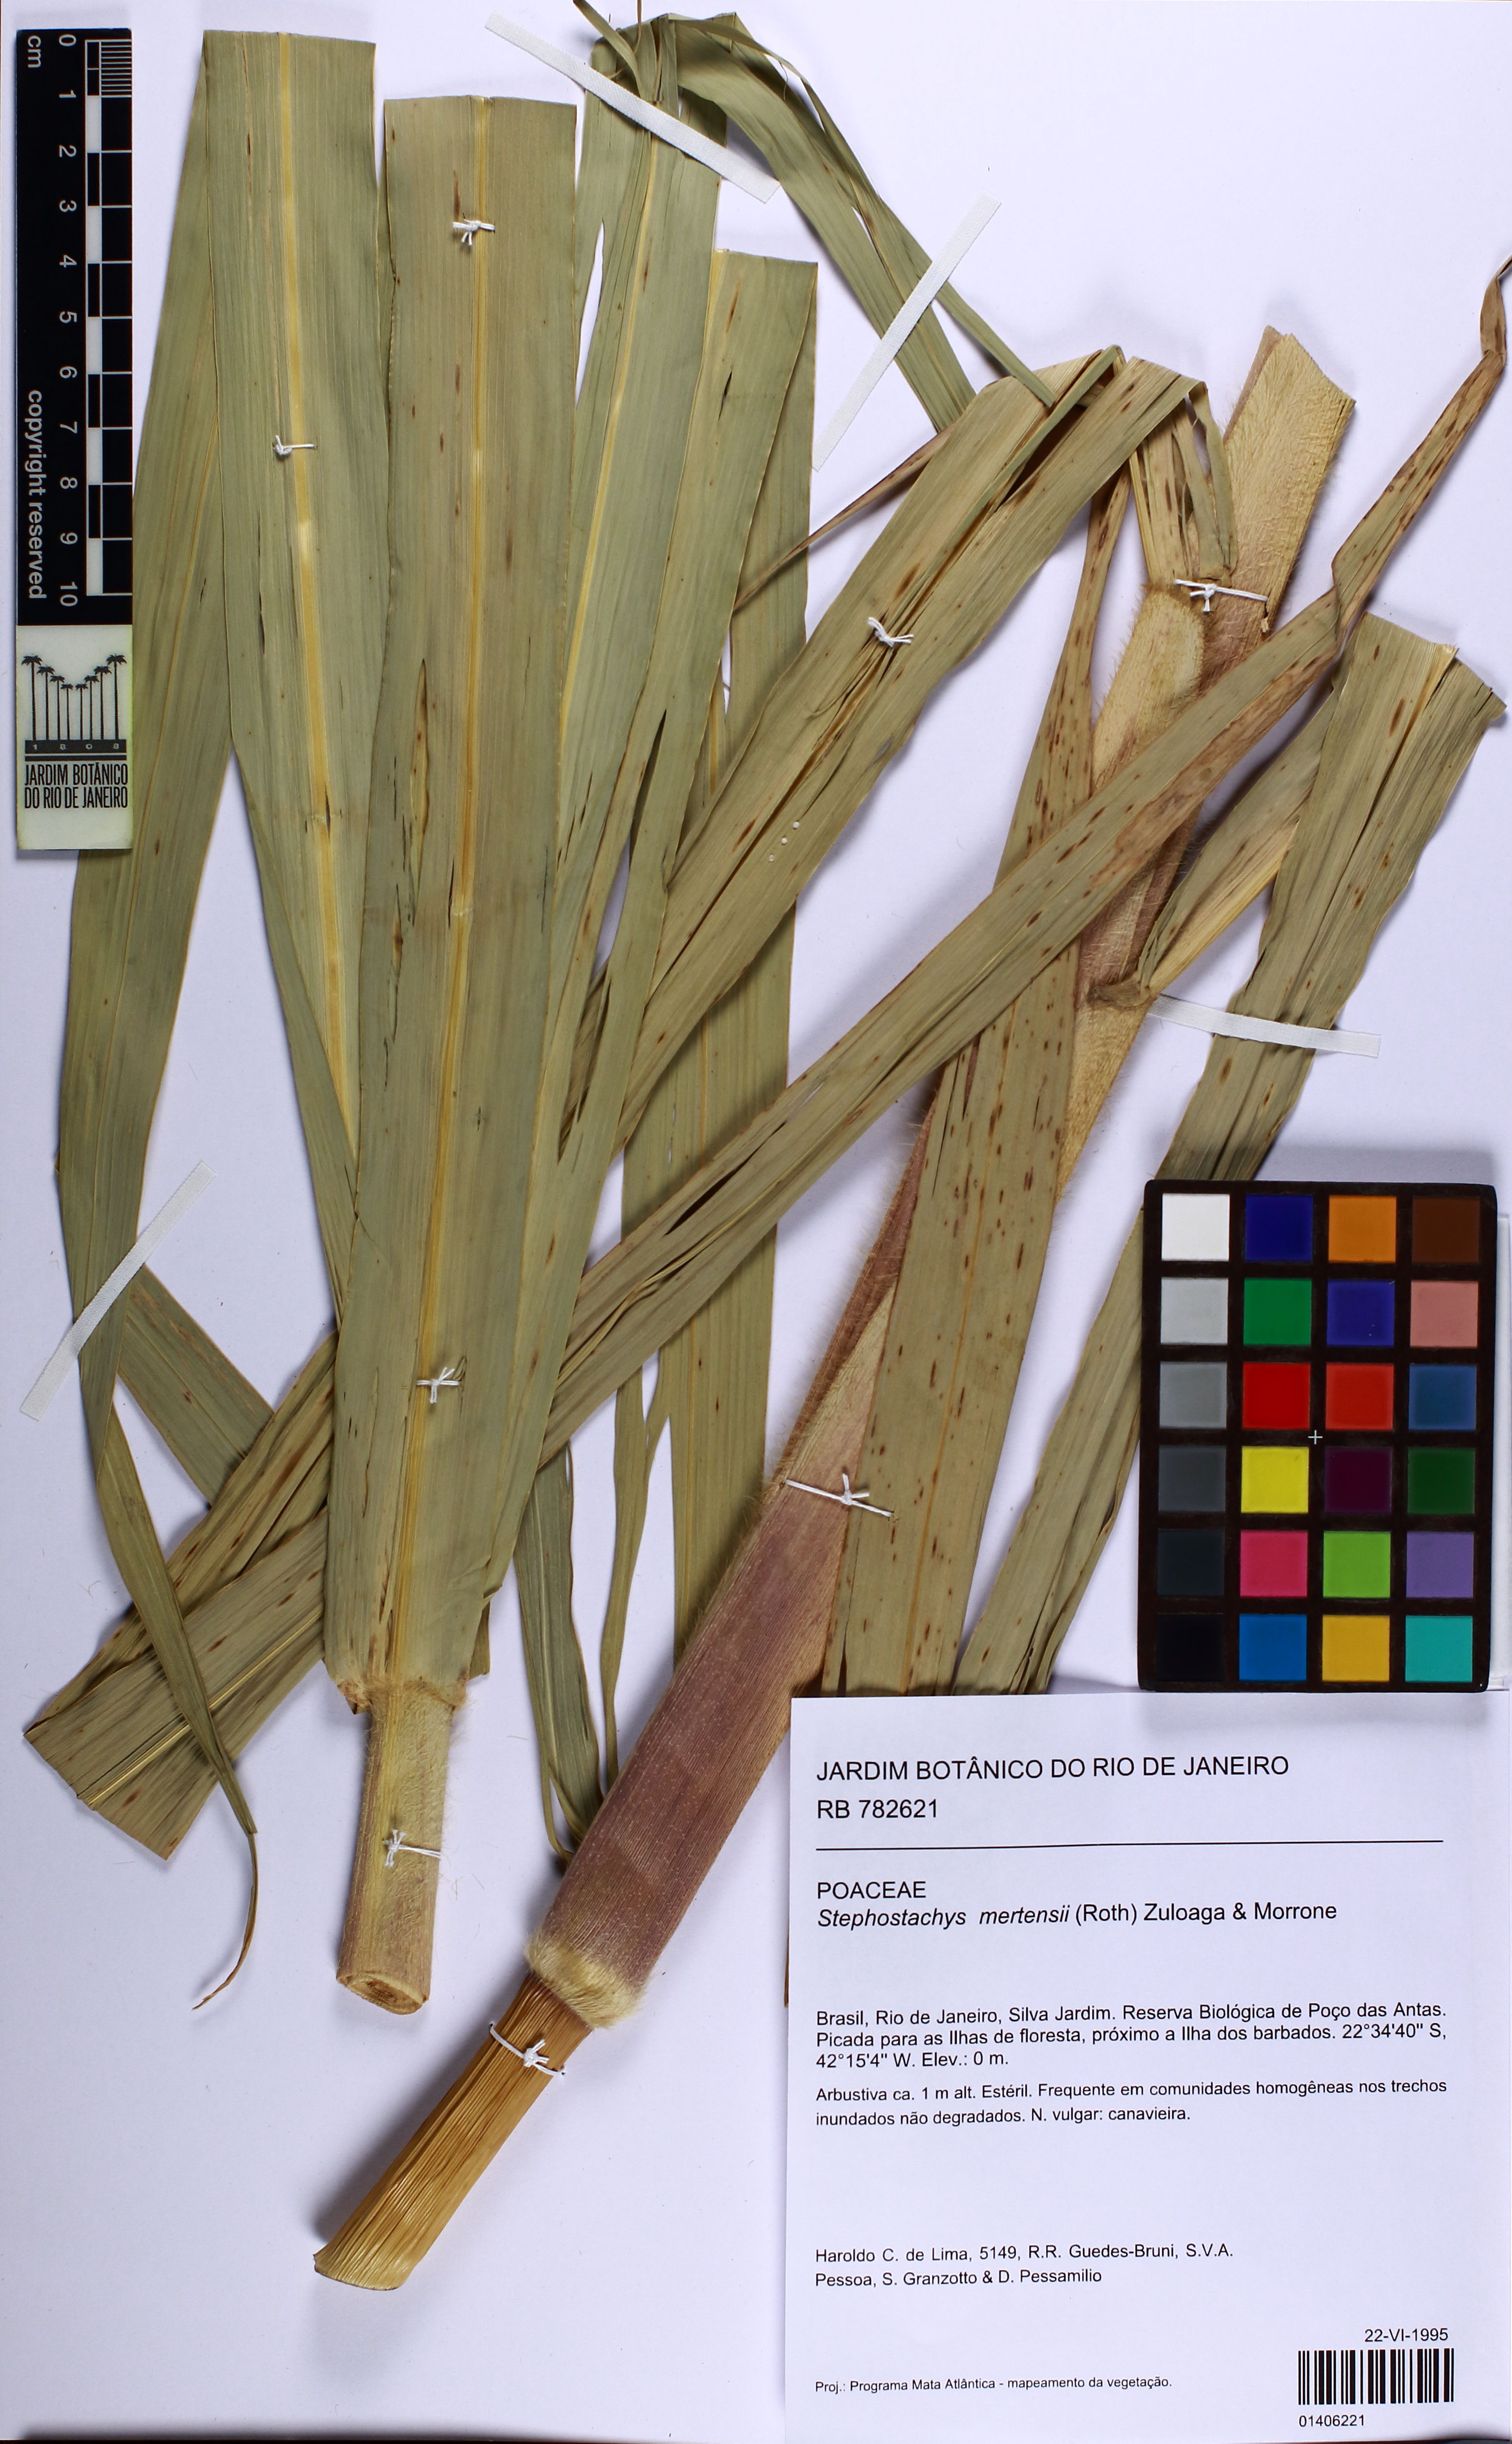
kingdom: Plantae
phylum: Tracheophyta
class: Liliopsida
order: Poales
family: Poaceae
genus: Stephostachys
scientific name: Stephostachys mertensii
